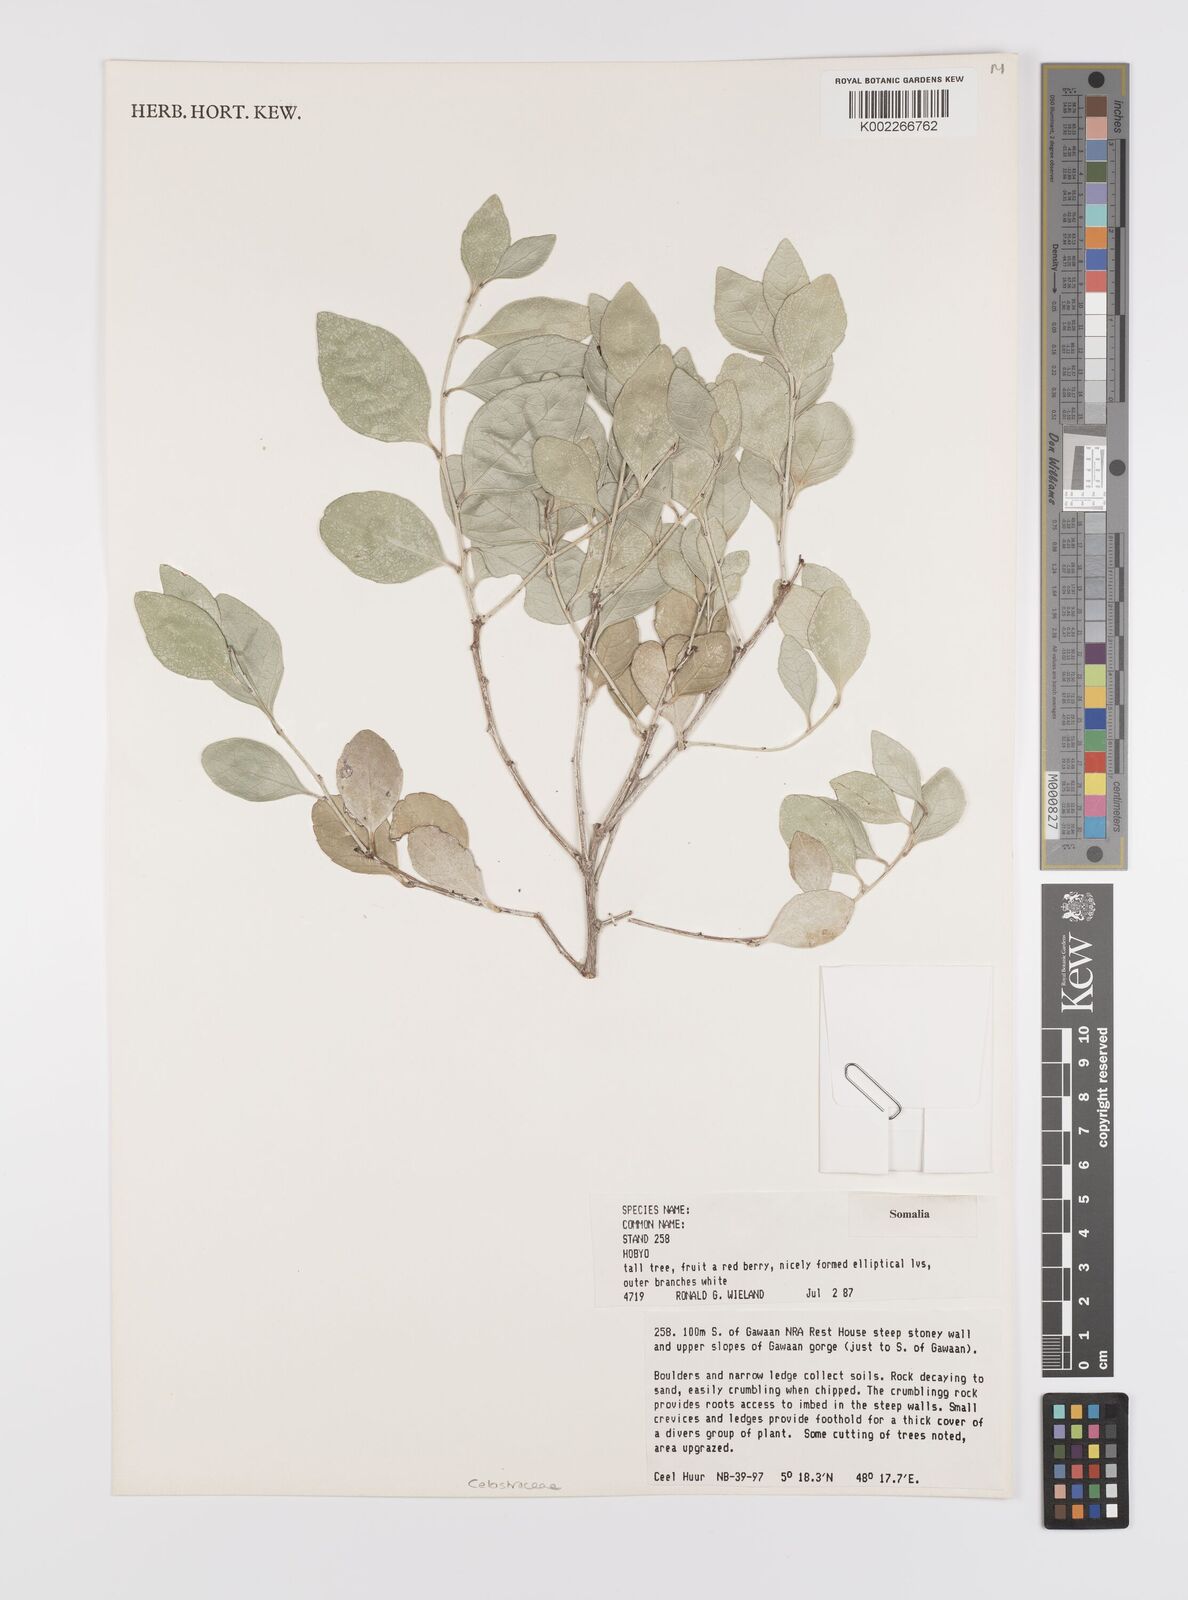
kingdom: Plantae
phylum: Tracheophyta
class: Magnoliopsida
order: Celastrales
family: Celastraceae
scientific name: Celastraceae
